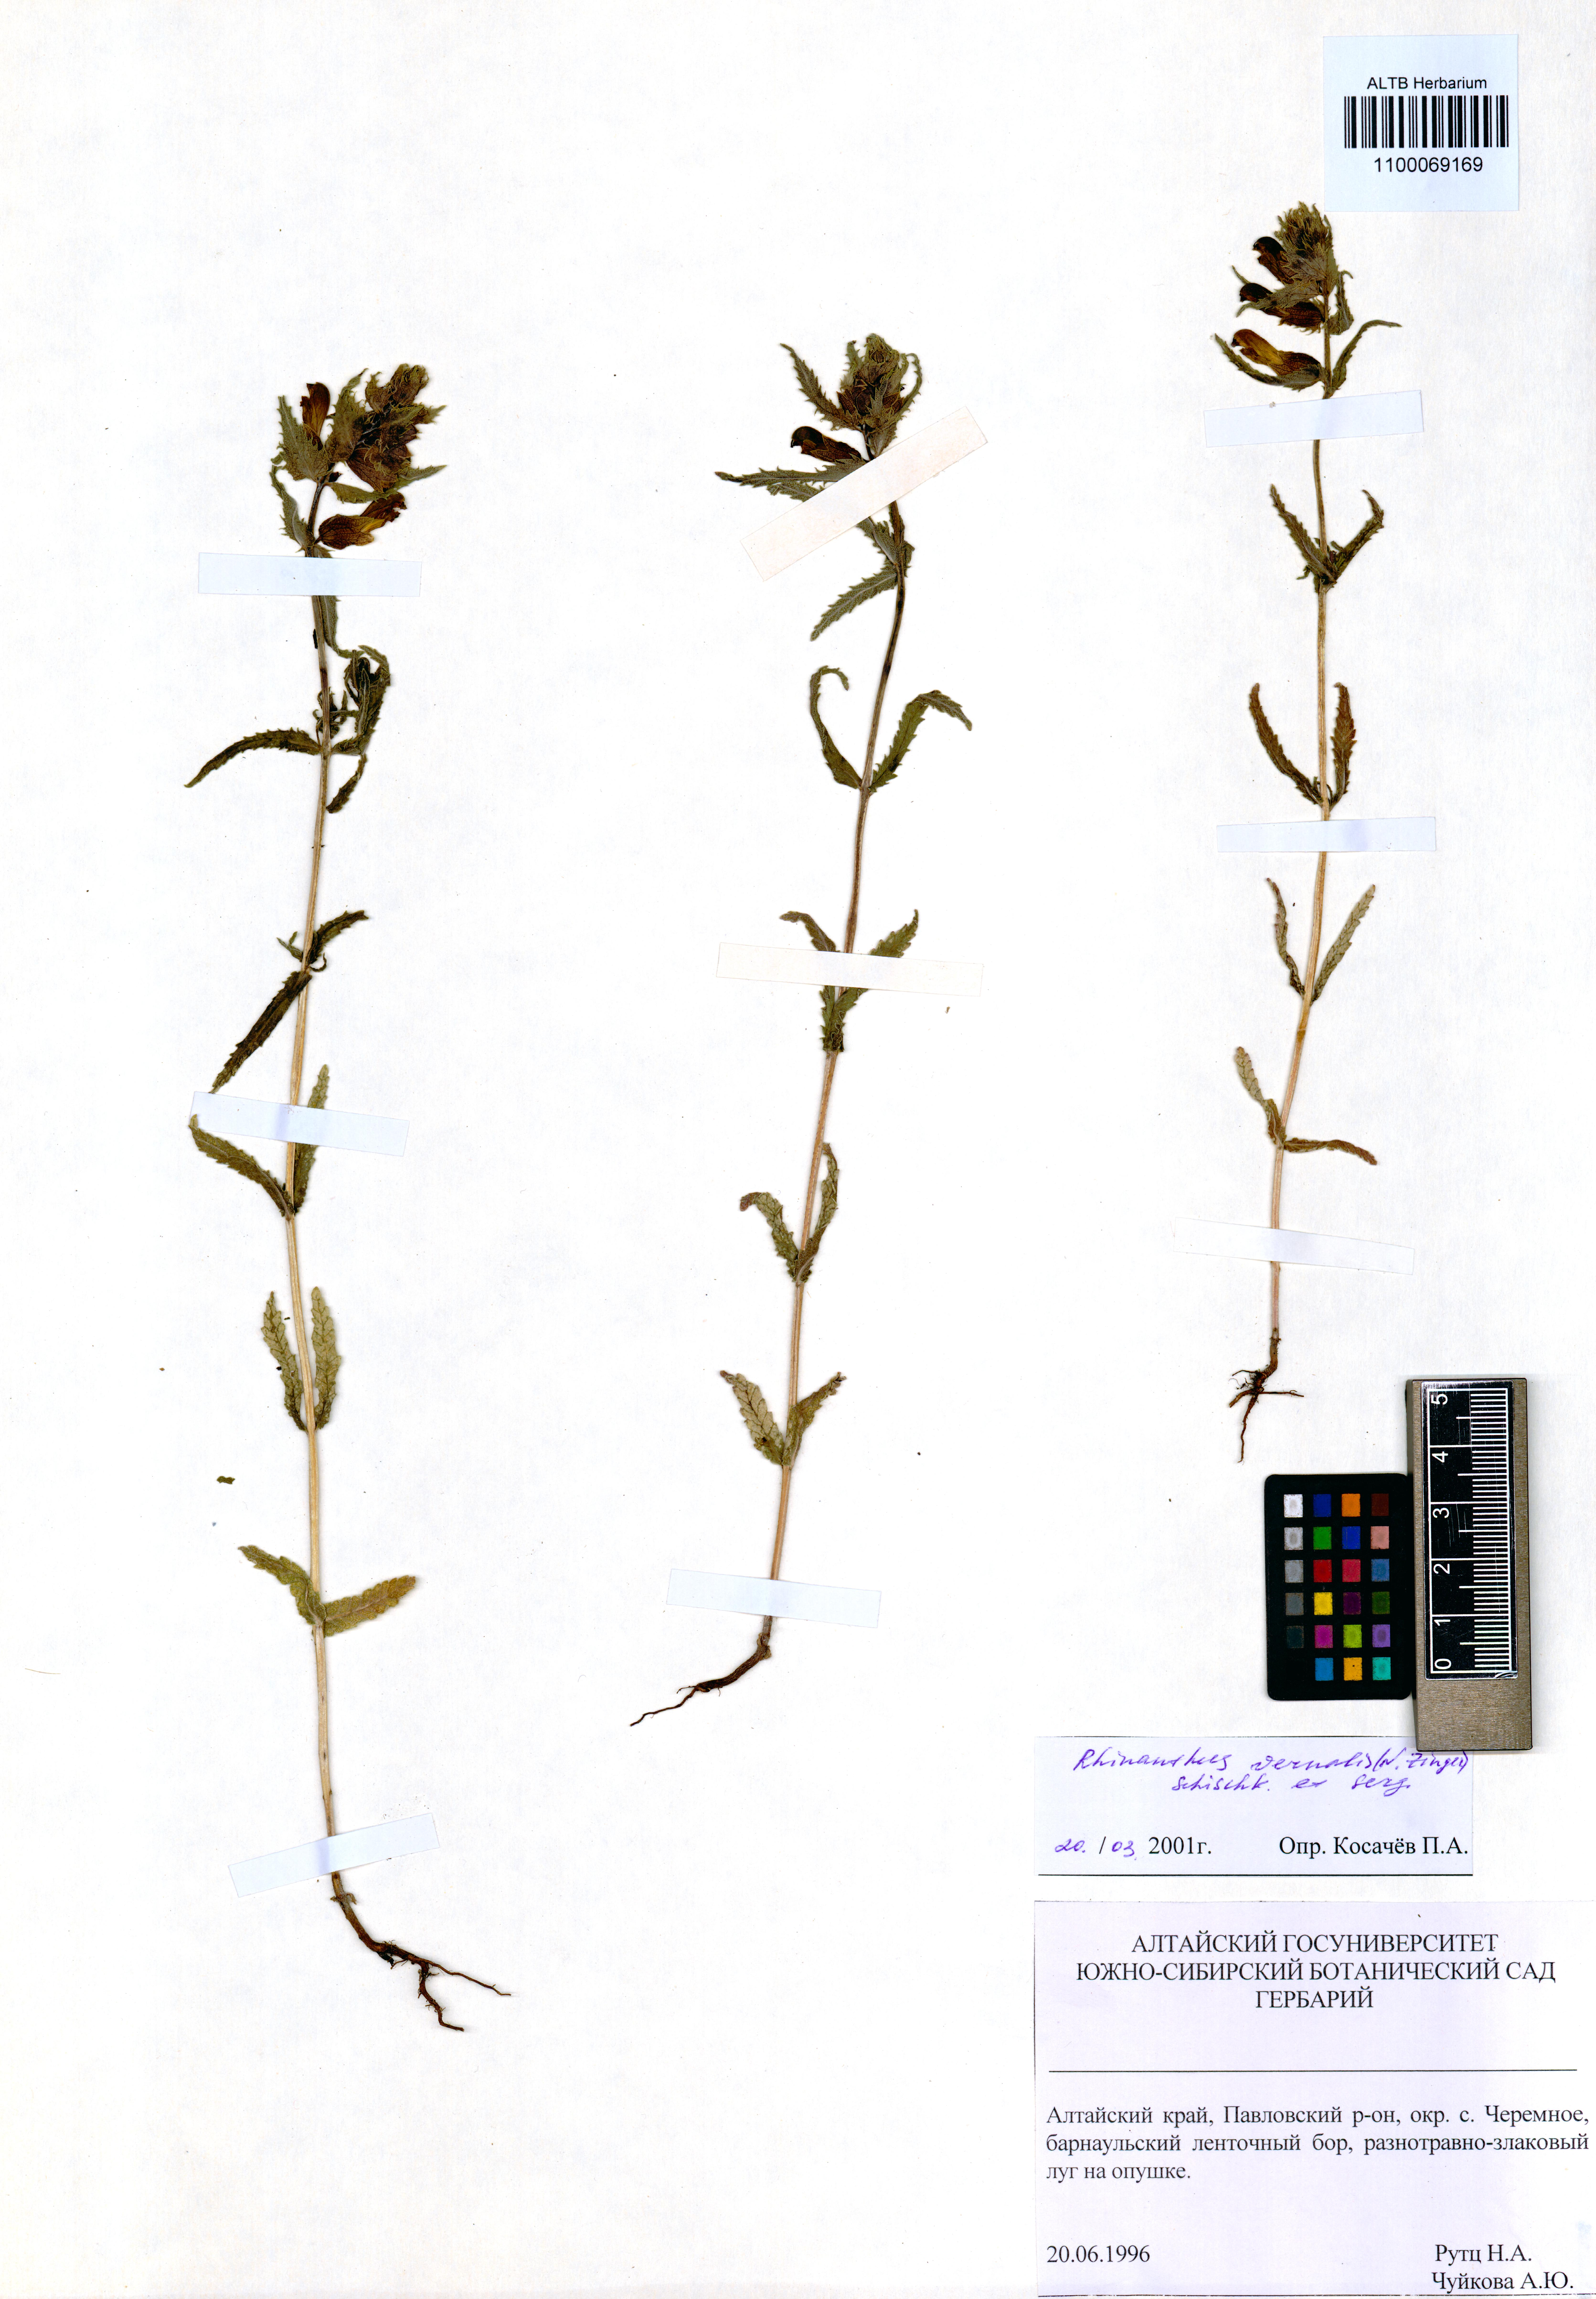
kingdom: Plantae
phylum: Tracheophyta
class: Magnoliopsida
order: Lamiales
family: Orobanchaceae
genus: Rhinanthus
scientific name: Rhinanthus serotinus
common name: Late-flowering yellow rattle
